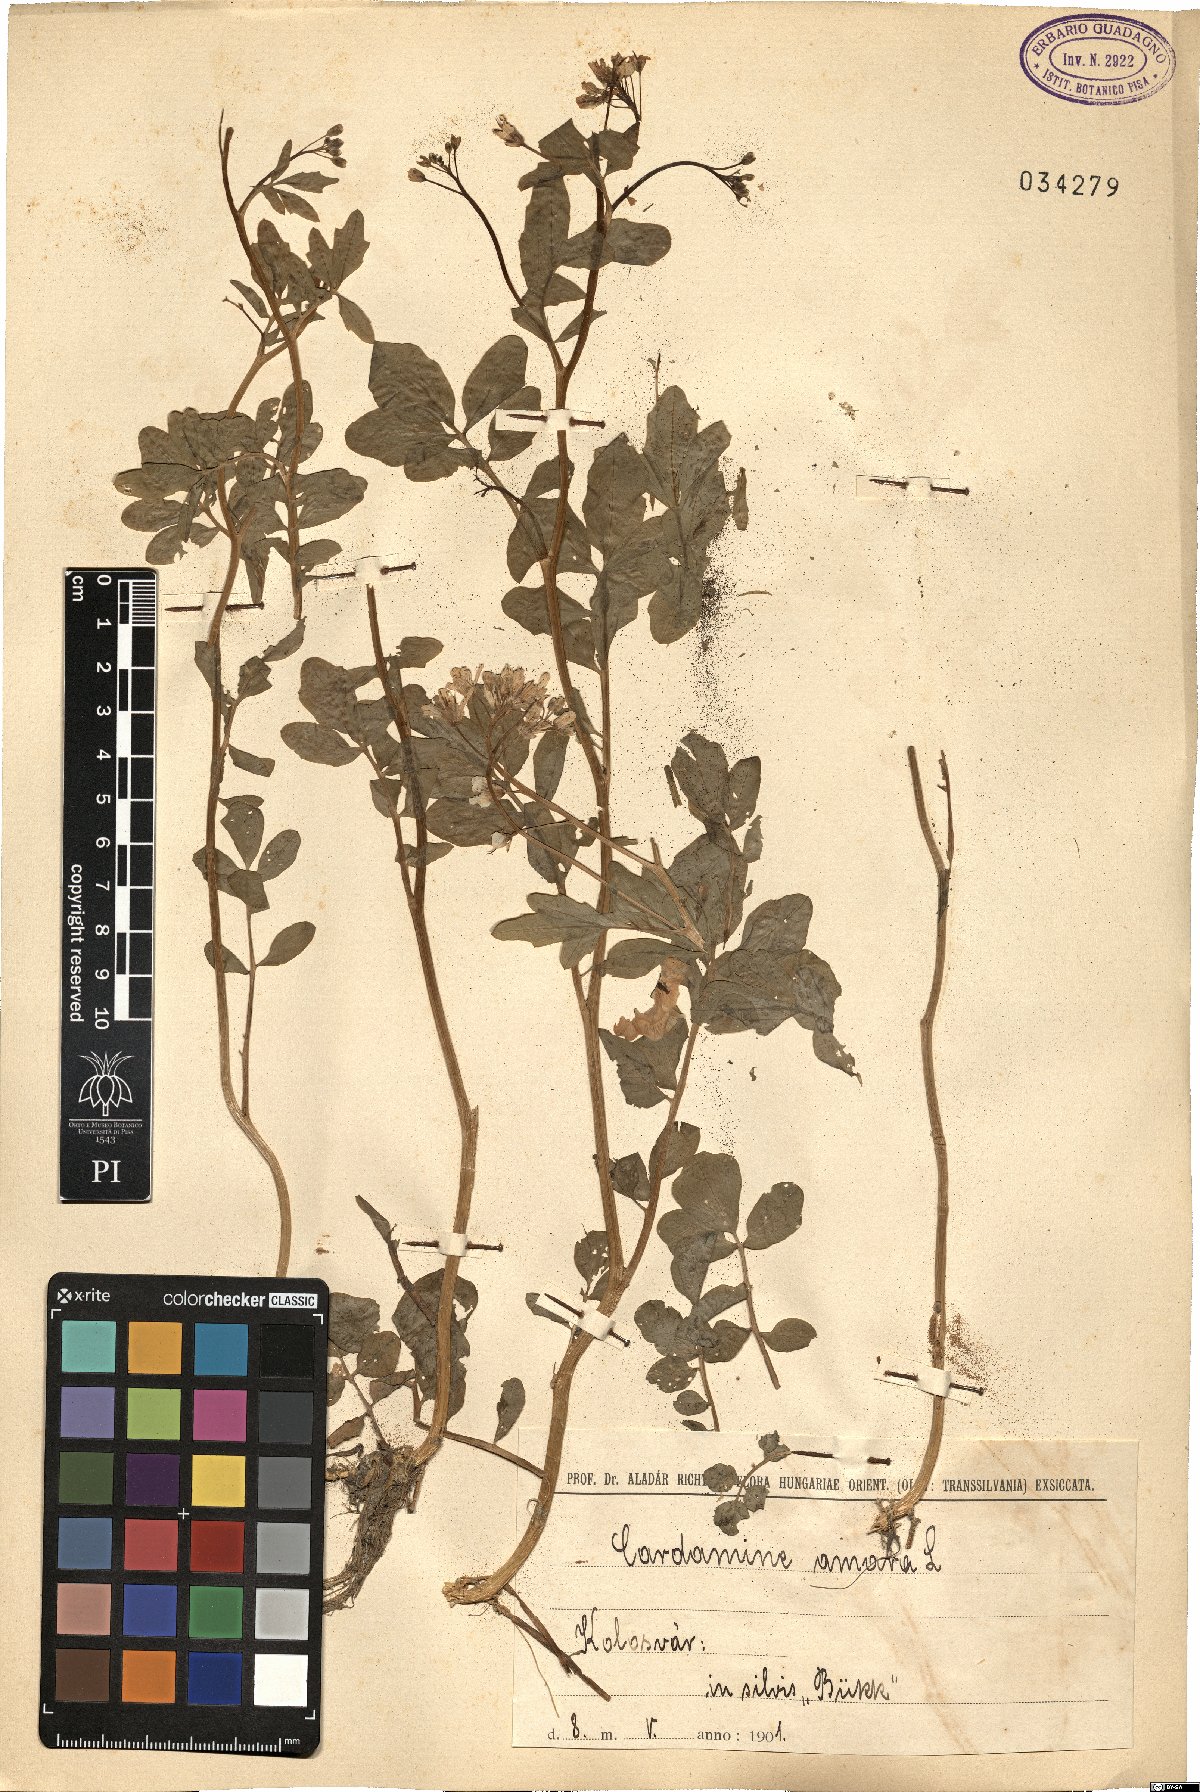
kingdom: Plantae
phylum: Tracheophyta
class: Magnoliopsida
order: Brassicales
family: Brassicaceae
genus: Cardamine
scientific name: Cardamine amara
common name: Large bitter-cress
